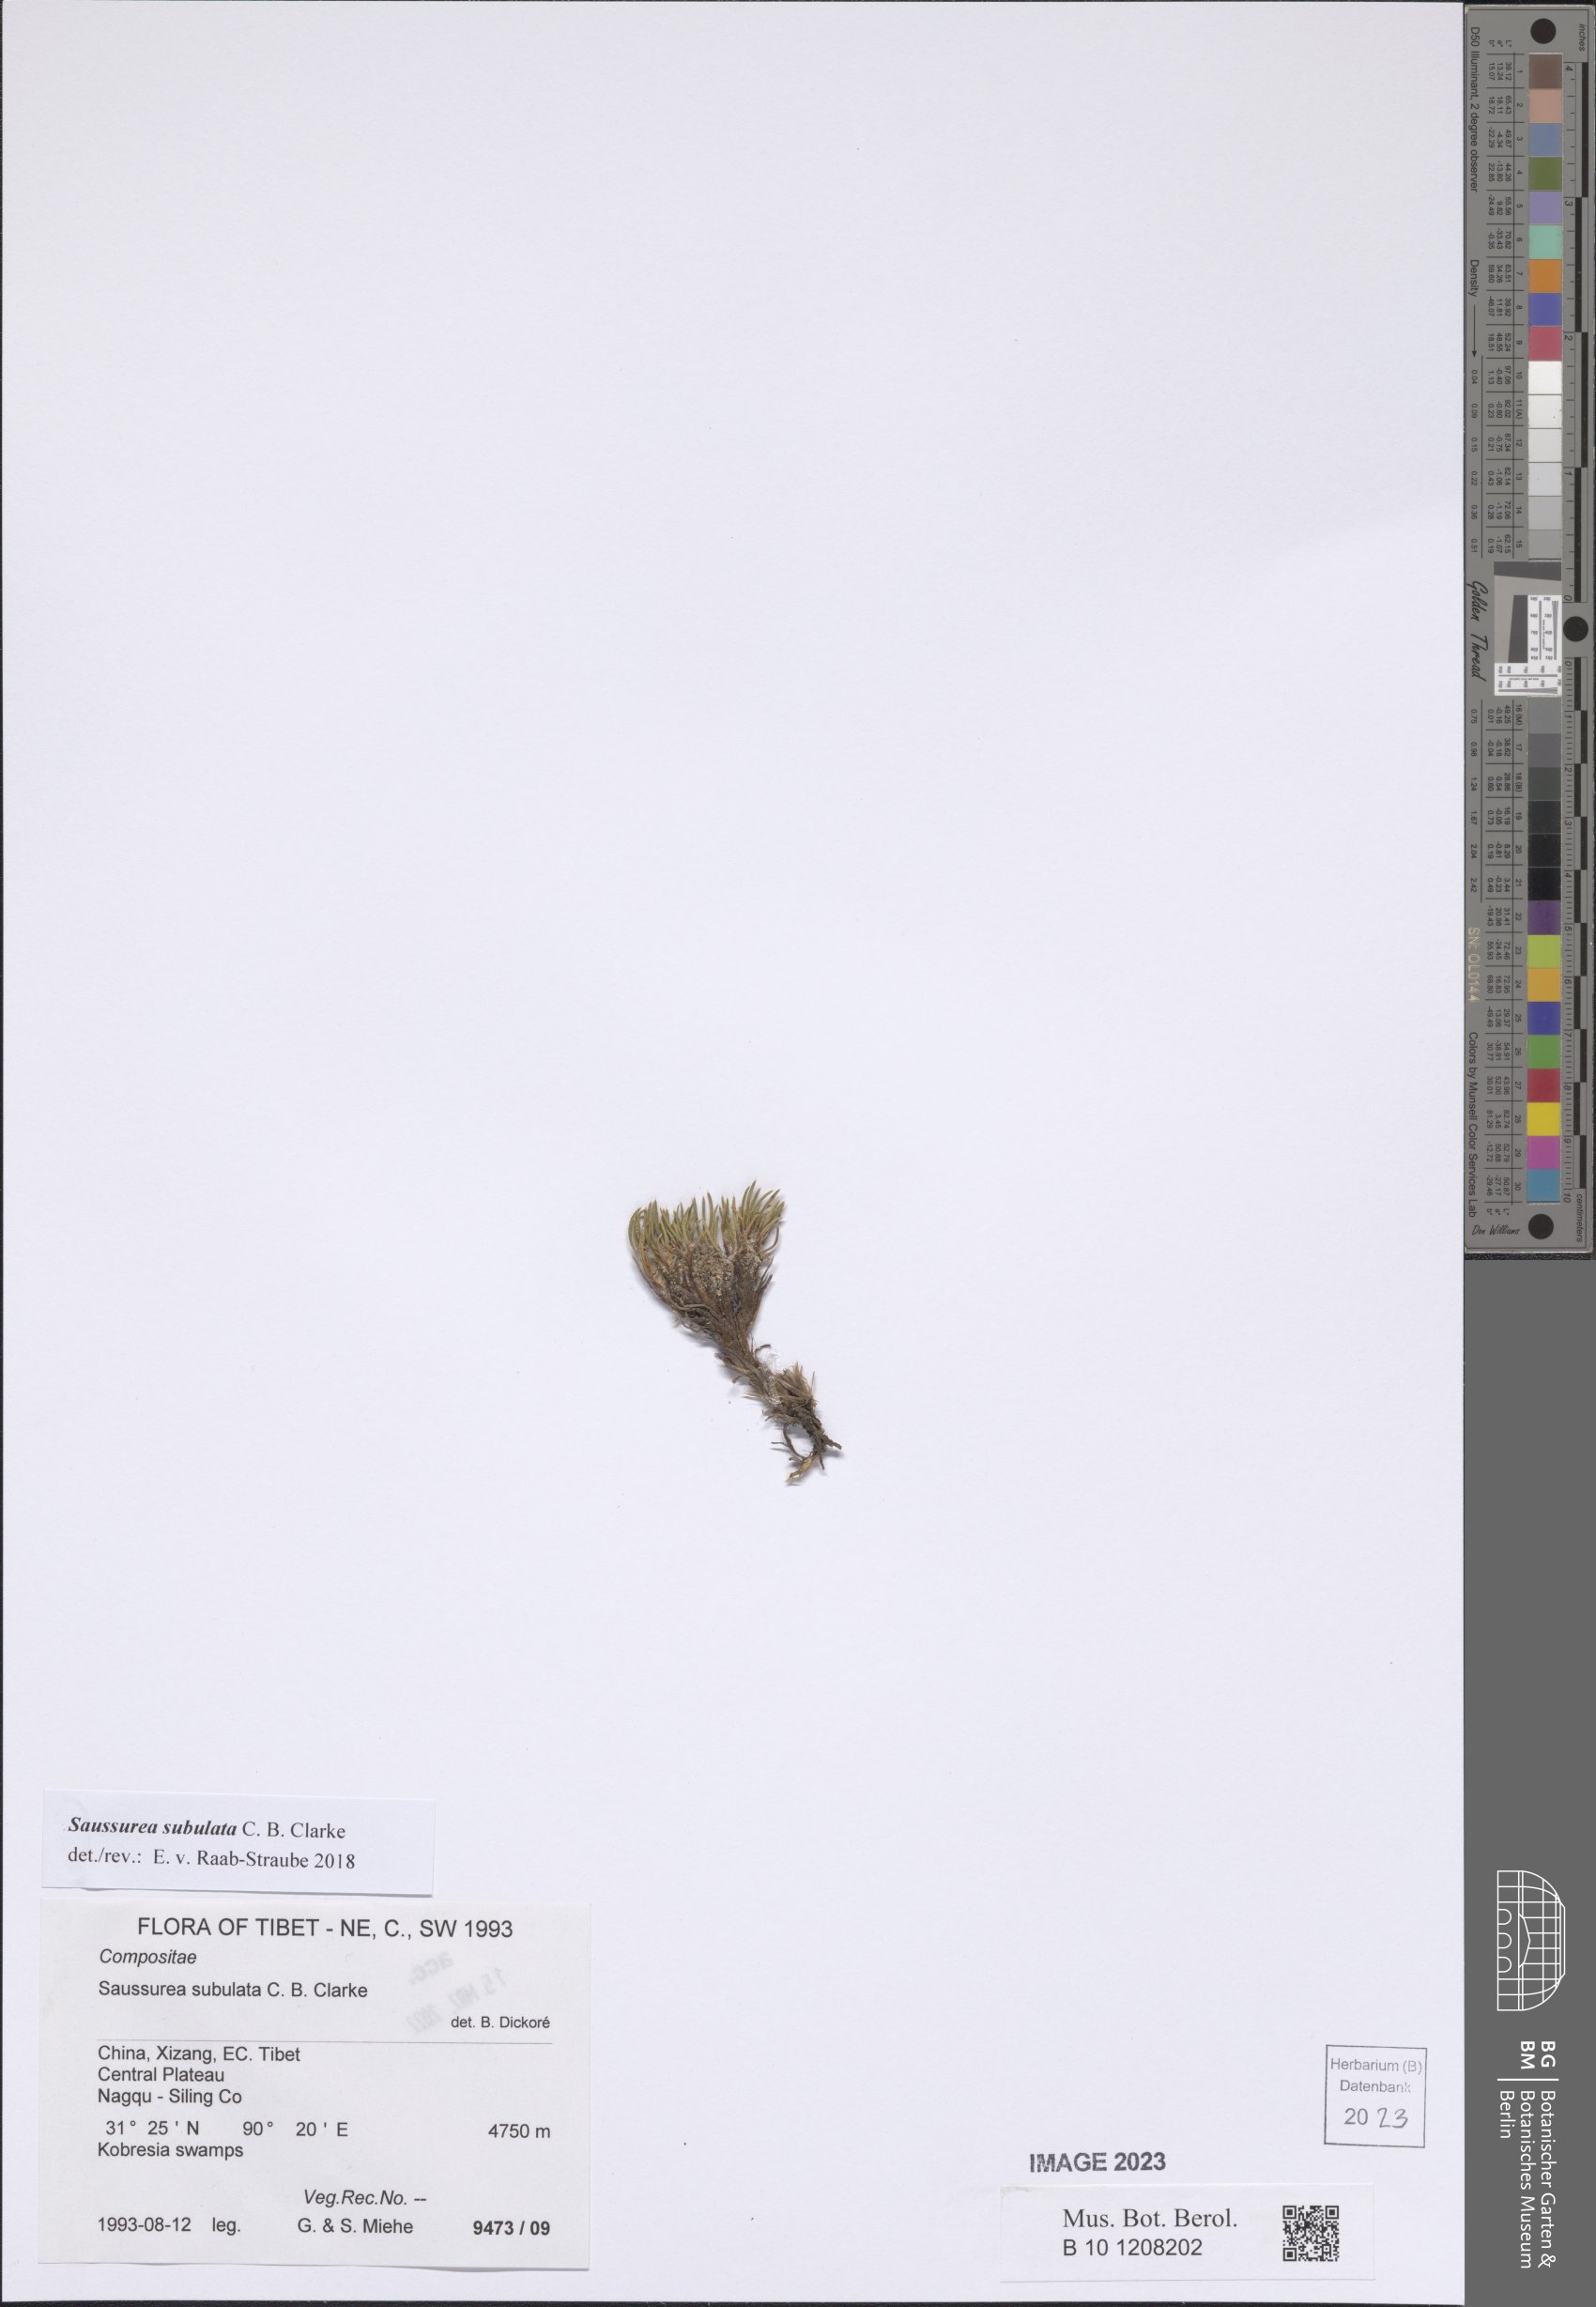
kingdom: Plantae
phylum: Tracheophyta
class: Magnoliopsida
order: Asterales
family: Asteraceae
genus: Saussurea
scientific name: Saussurea subulata
